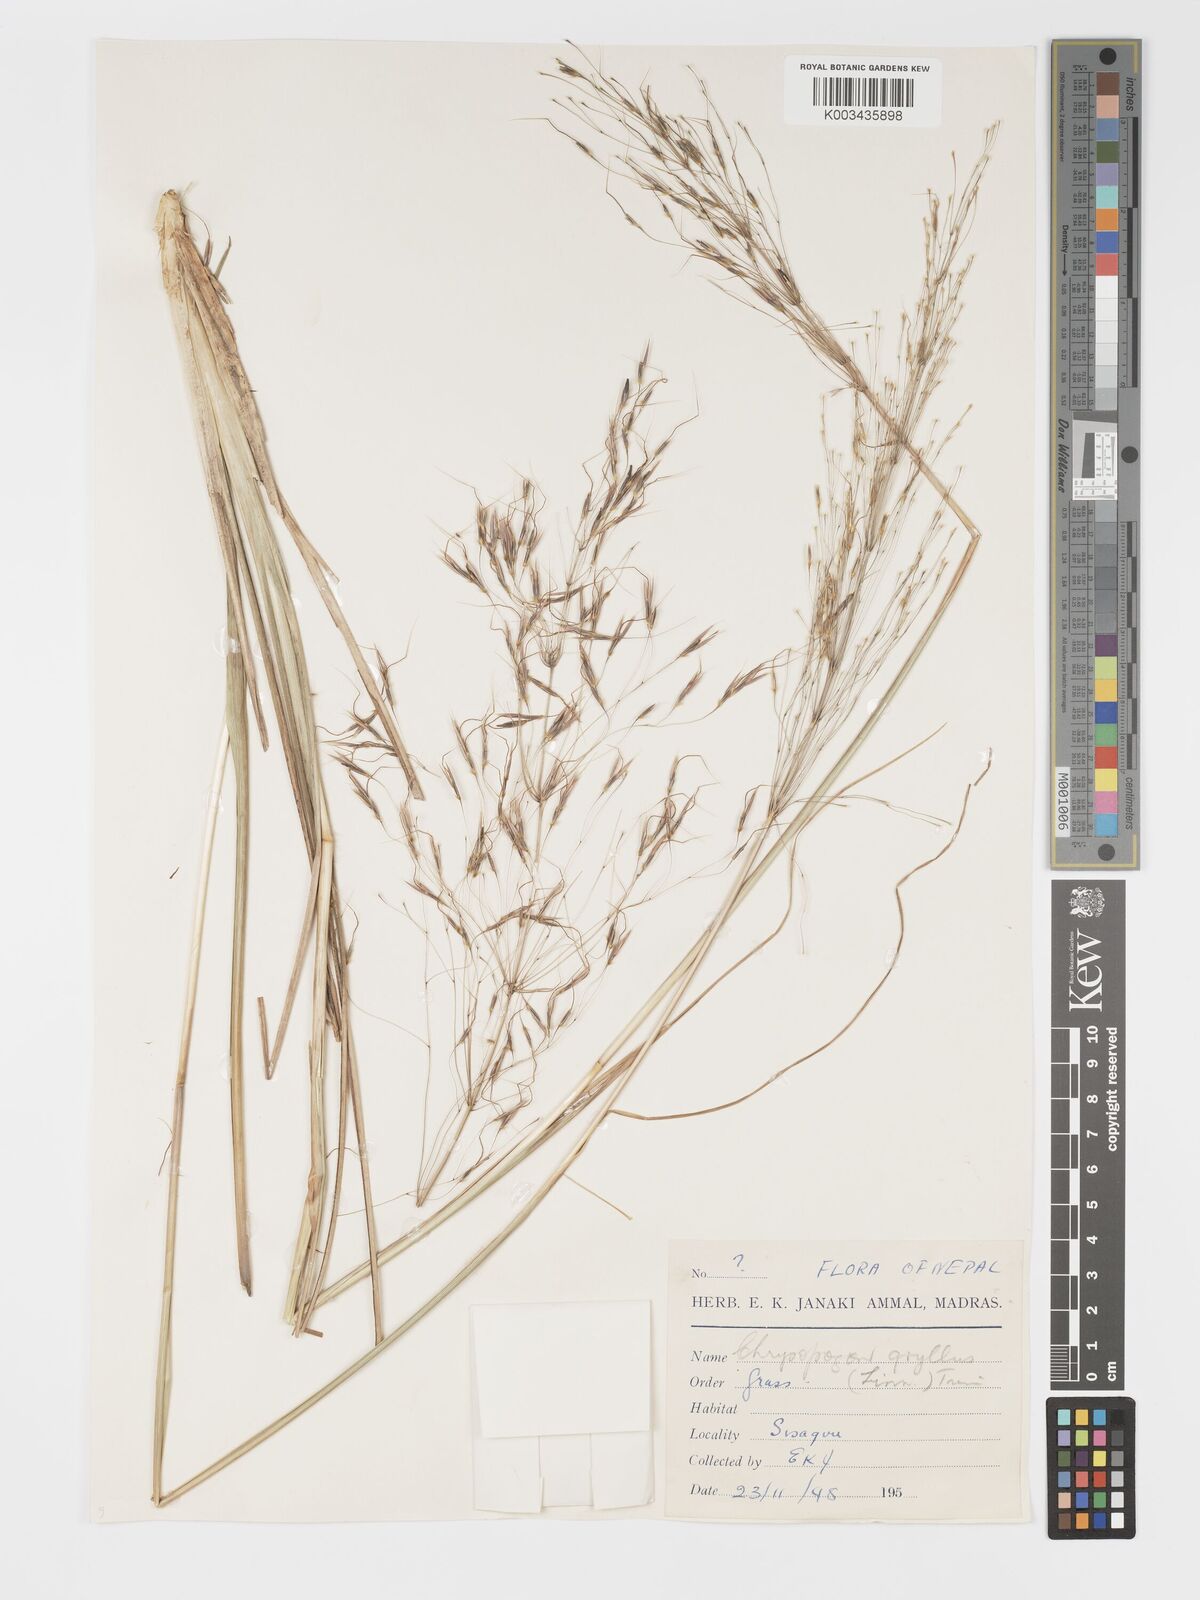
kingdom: Plantae
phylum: Tracheophyta
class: Liliopsida
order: Poales
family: Poaceae
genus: Chrysopogon
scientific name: Chrysopogon gryllus
